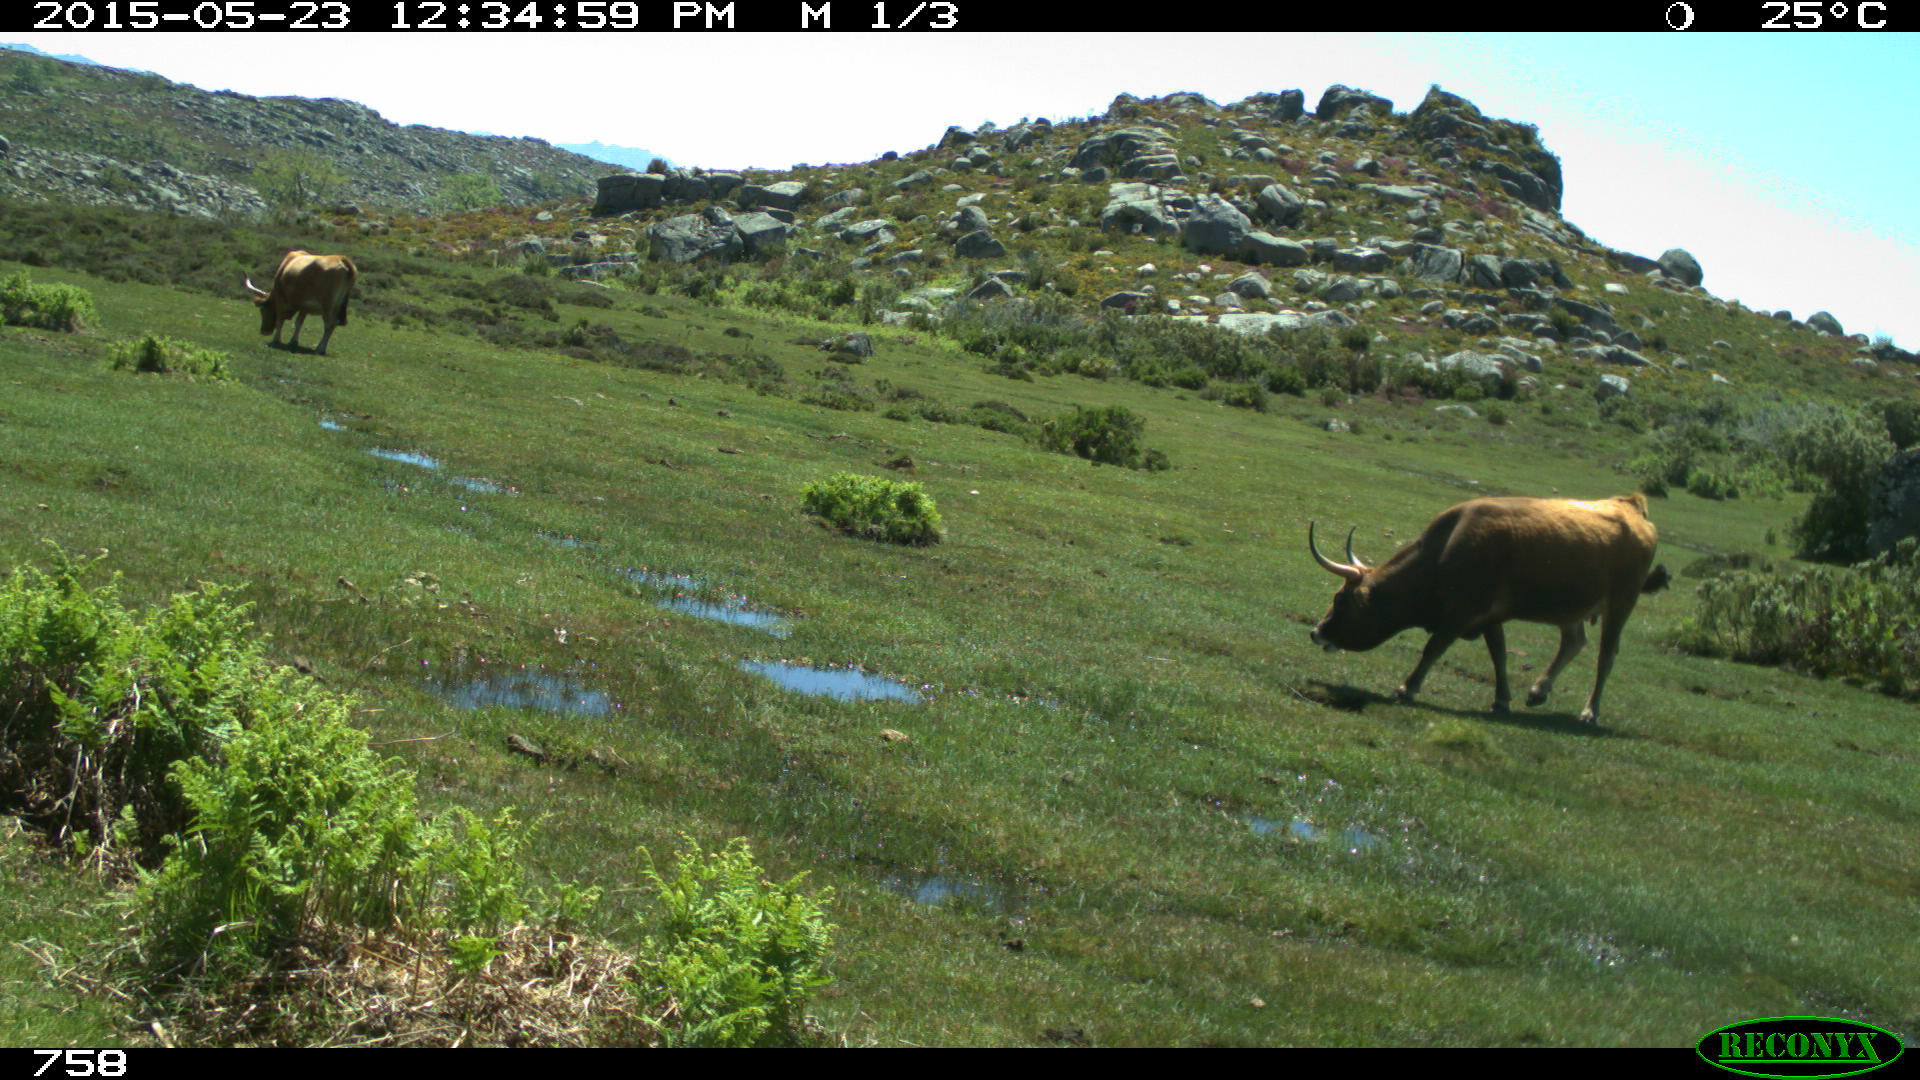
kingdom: Animalia
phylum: Chordata
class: Mammalia
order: Artiodactyla
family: Bovidae
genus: Bos
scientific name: Bos taurus
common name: Domesticated cattle
